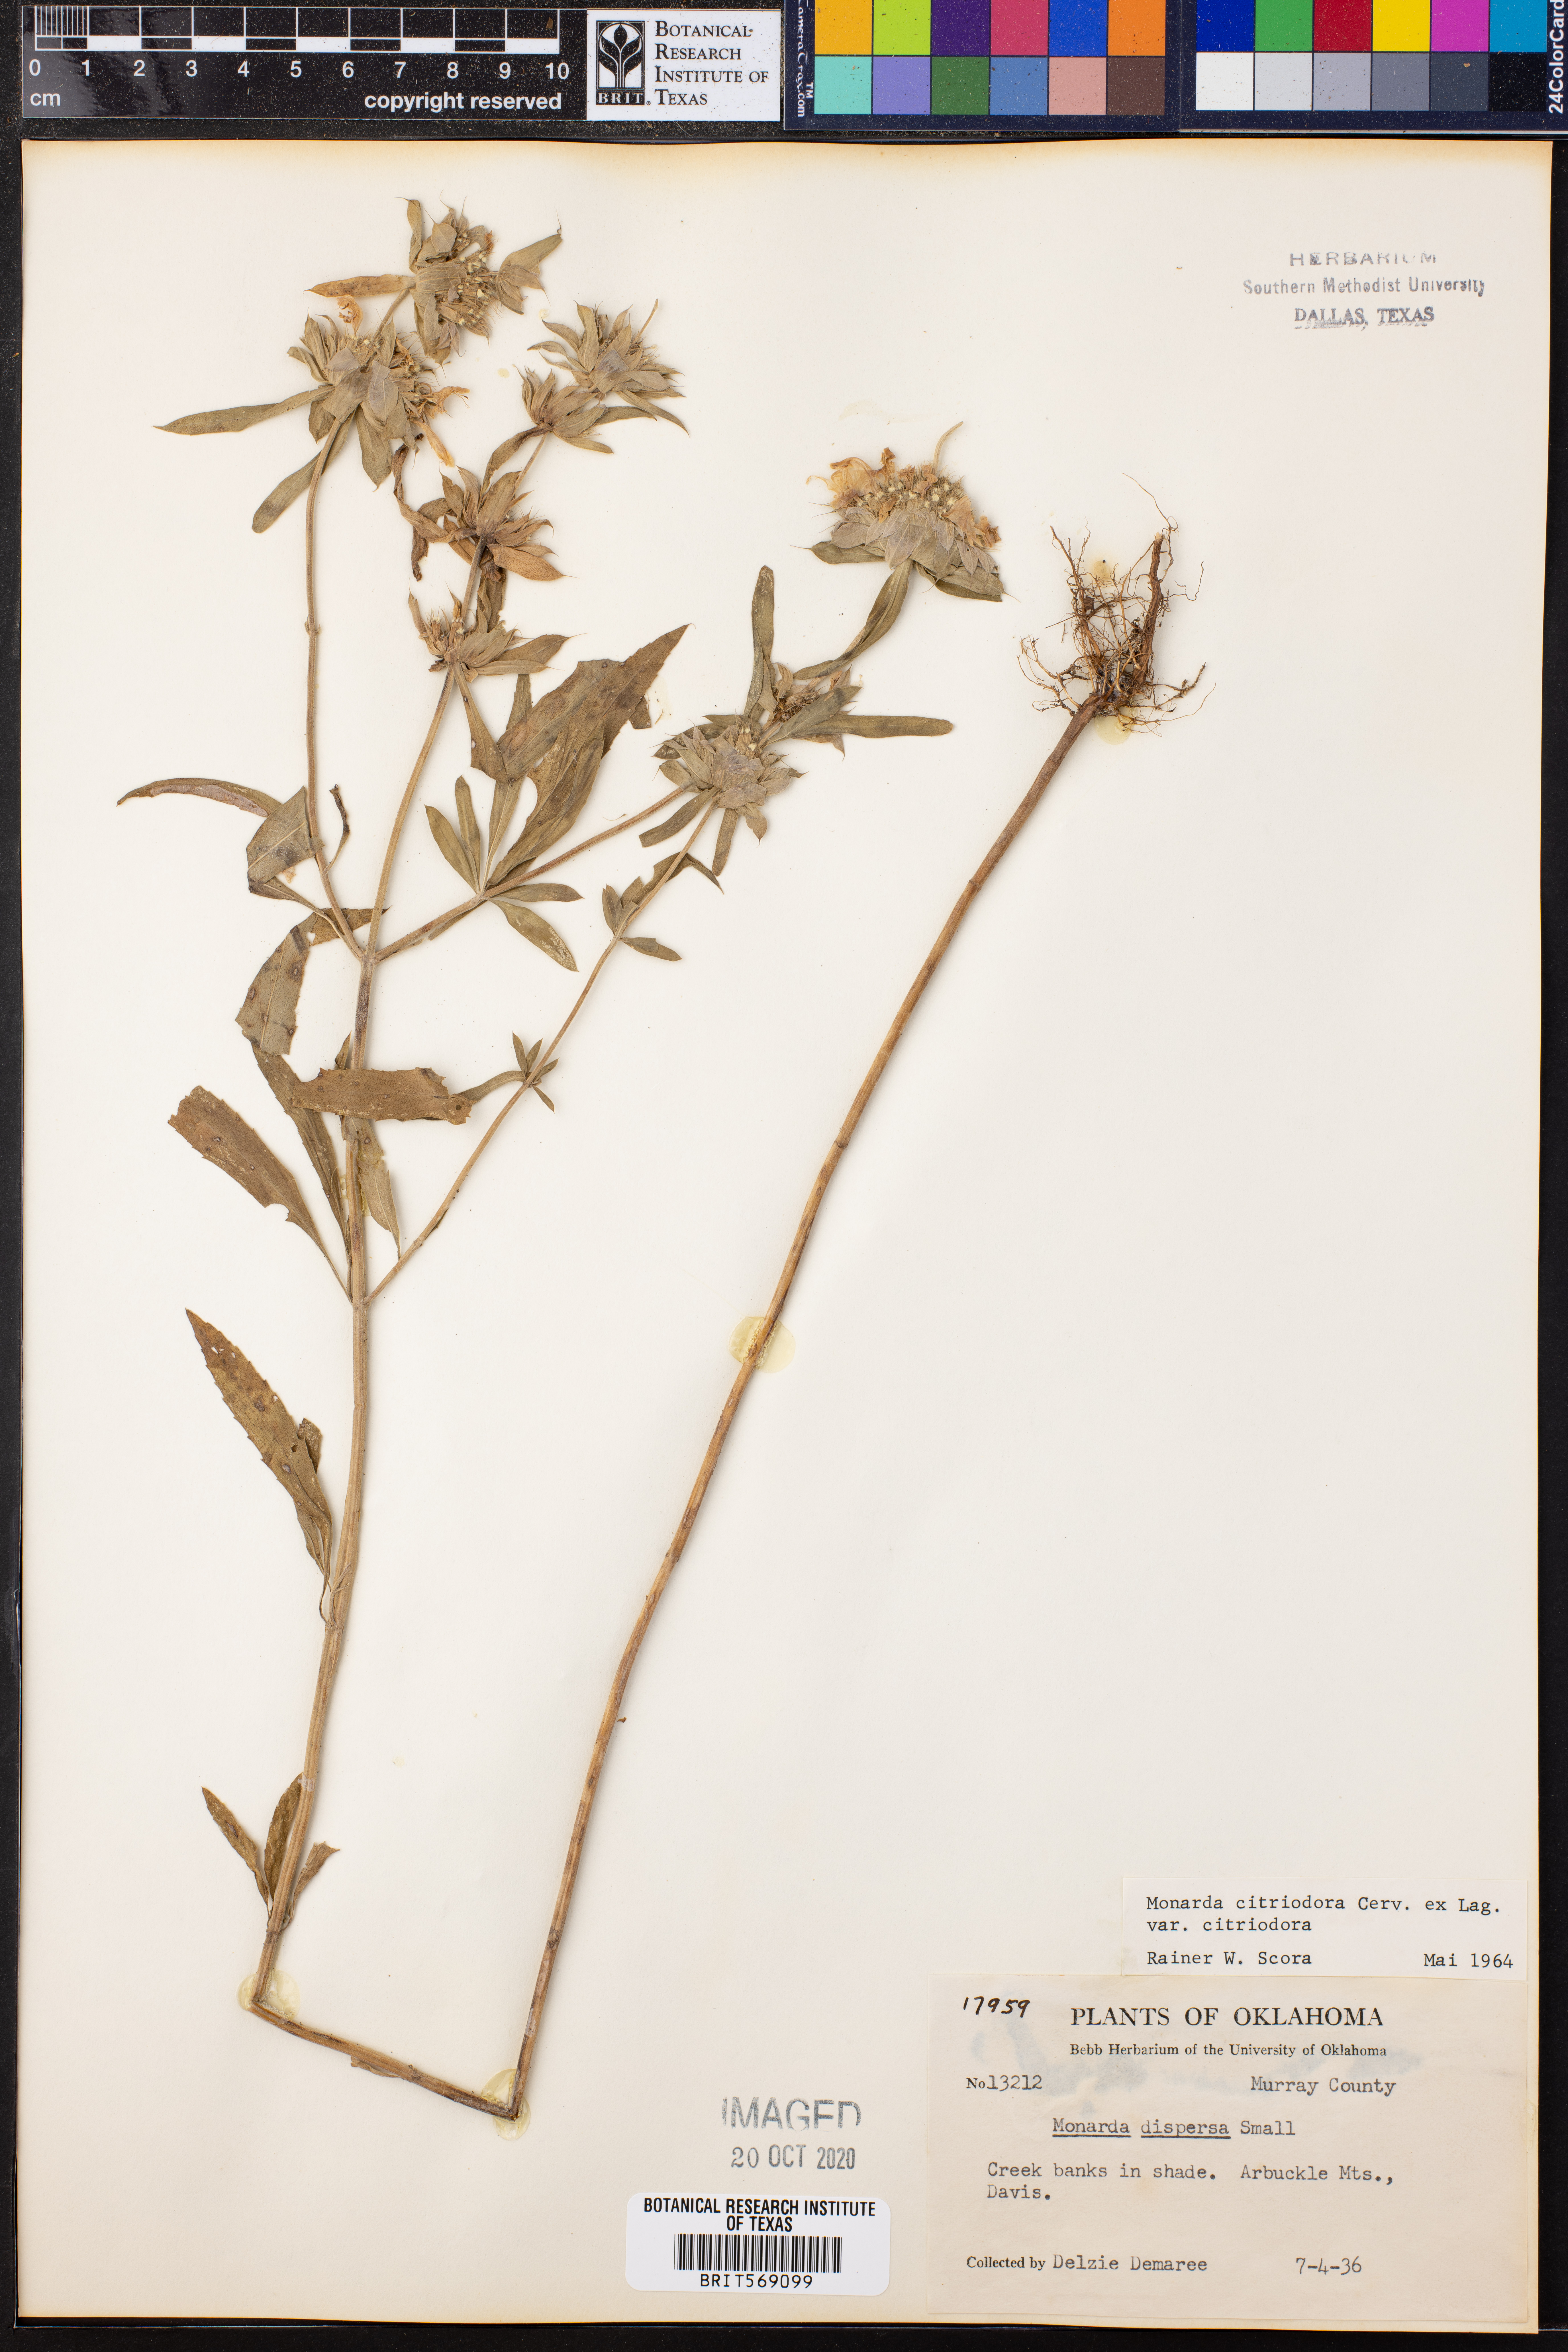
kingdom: Plantae
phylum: Tracheophyta
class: Magnoliopsida
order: Lamiales
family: Lamiaceae
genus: Monarda
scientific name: Monarda citriodora
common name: Lemon beebalm
